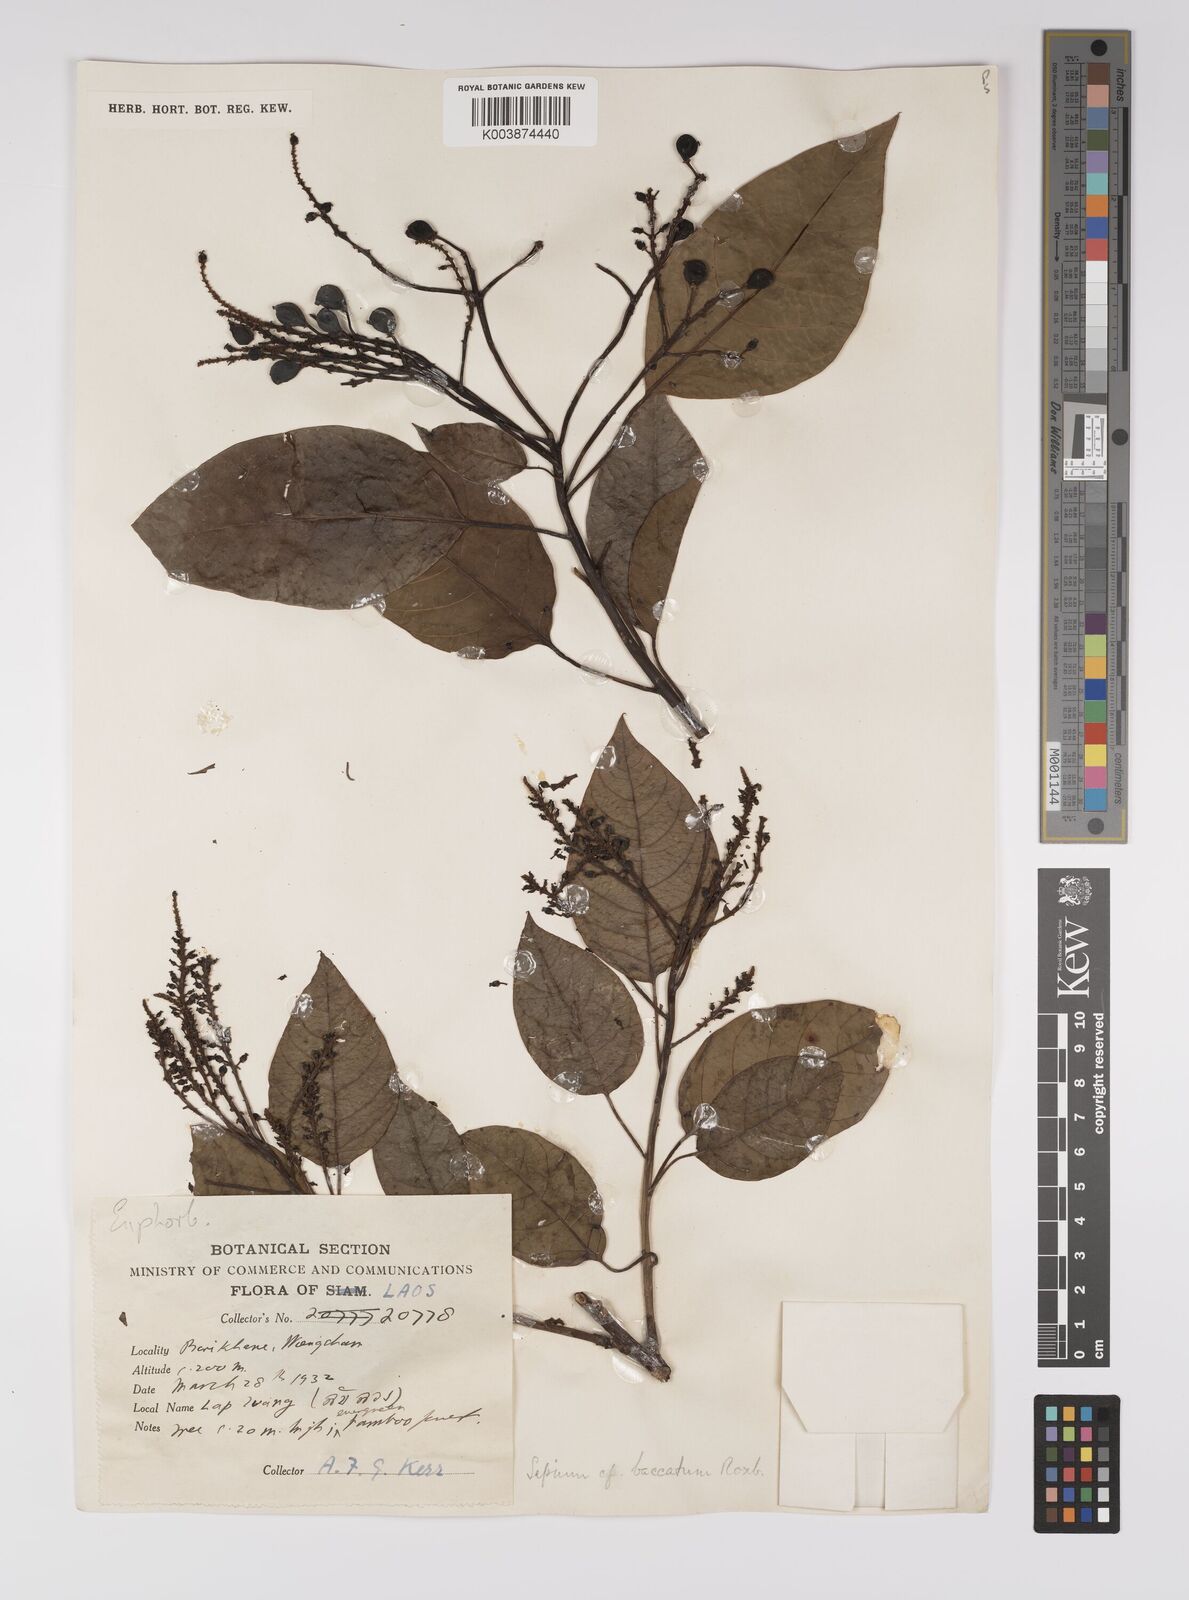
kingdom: Plantae
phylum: Tracheophyta
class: Magnoliopsida
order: Malpighiales
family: Euphorbiaceae
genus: Balakata
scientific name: Balakata baccata
